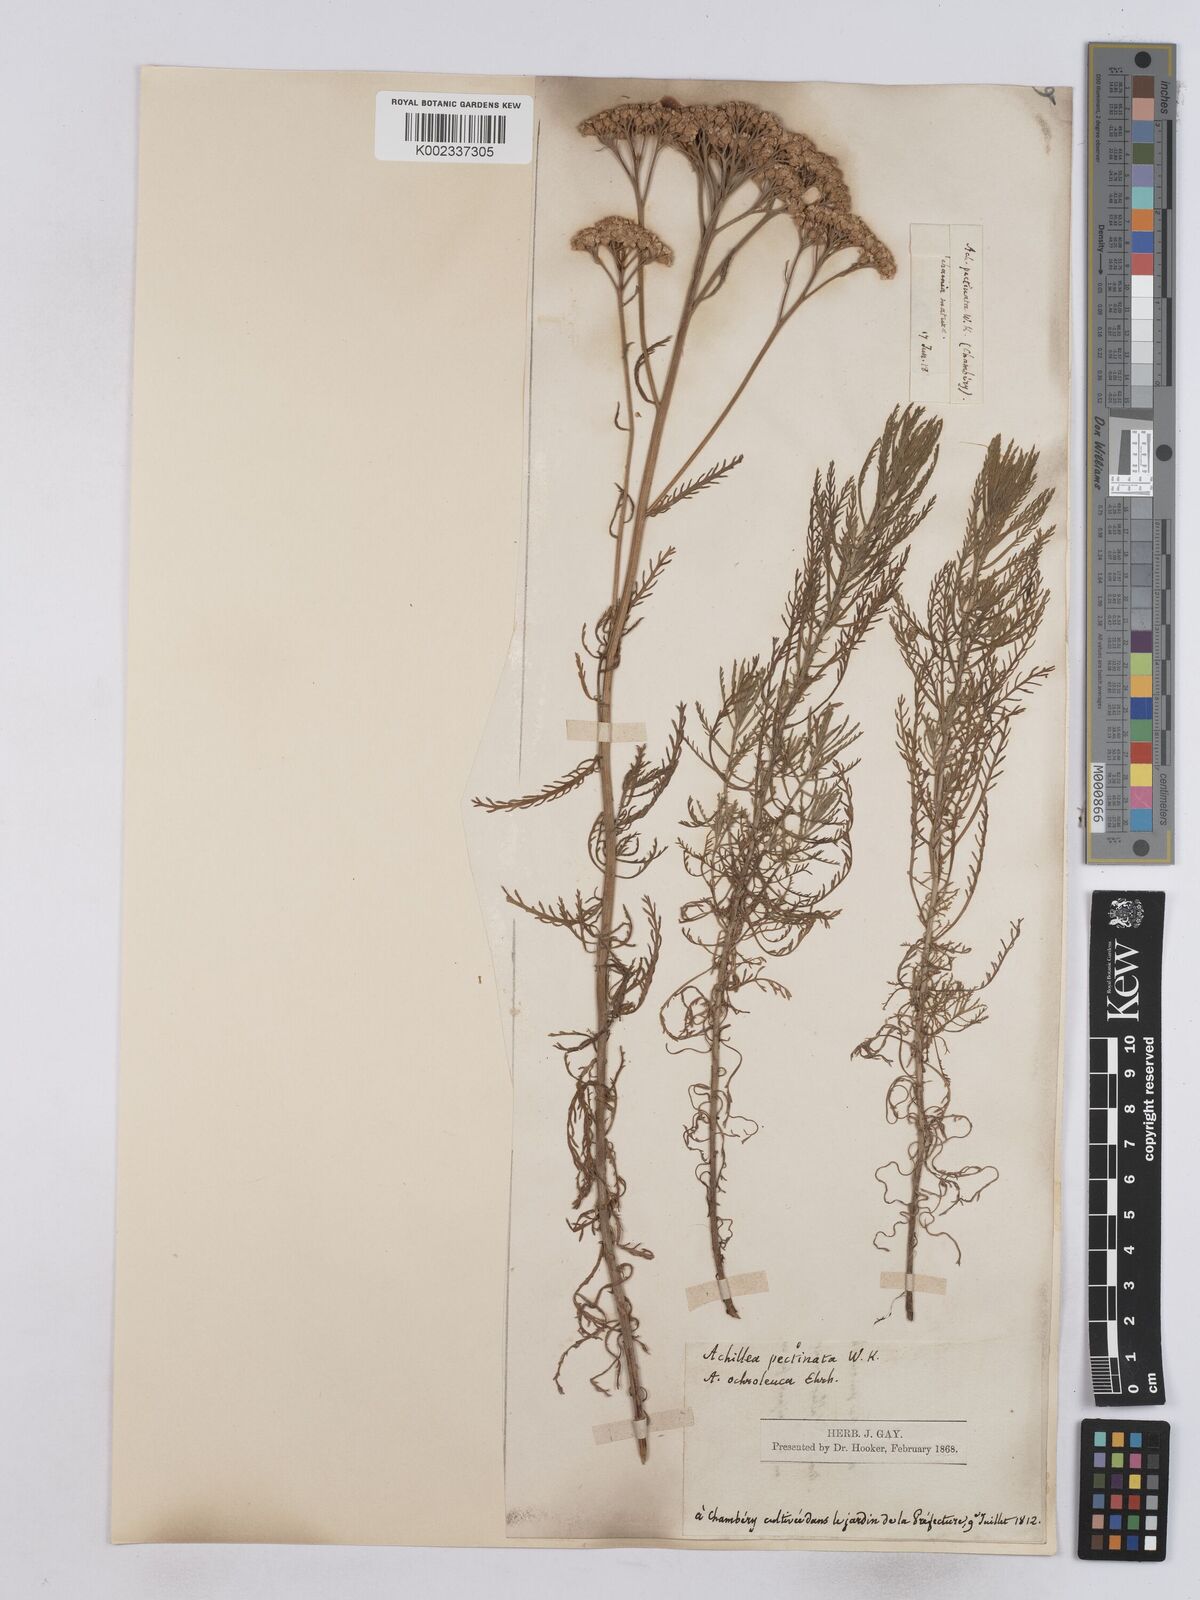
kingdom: Plantae
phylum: Tracheophyta
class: Magnoliopsida
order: Asterales
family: Asteraceae
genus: Achillea
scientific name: Achillea ochroleuca
